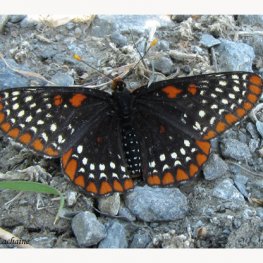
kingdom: Animalia
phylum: Arthropoda
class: Insecta
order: Lepidoptera
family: Nymphalidae
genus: Euphydryas
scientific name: Euphydryas phaeton
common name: Baltimore Checkerspot
